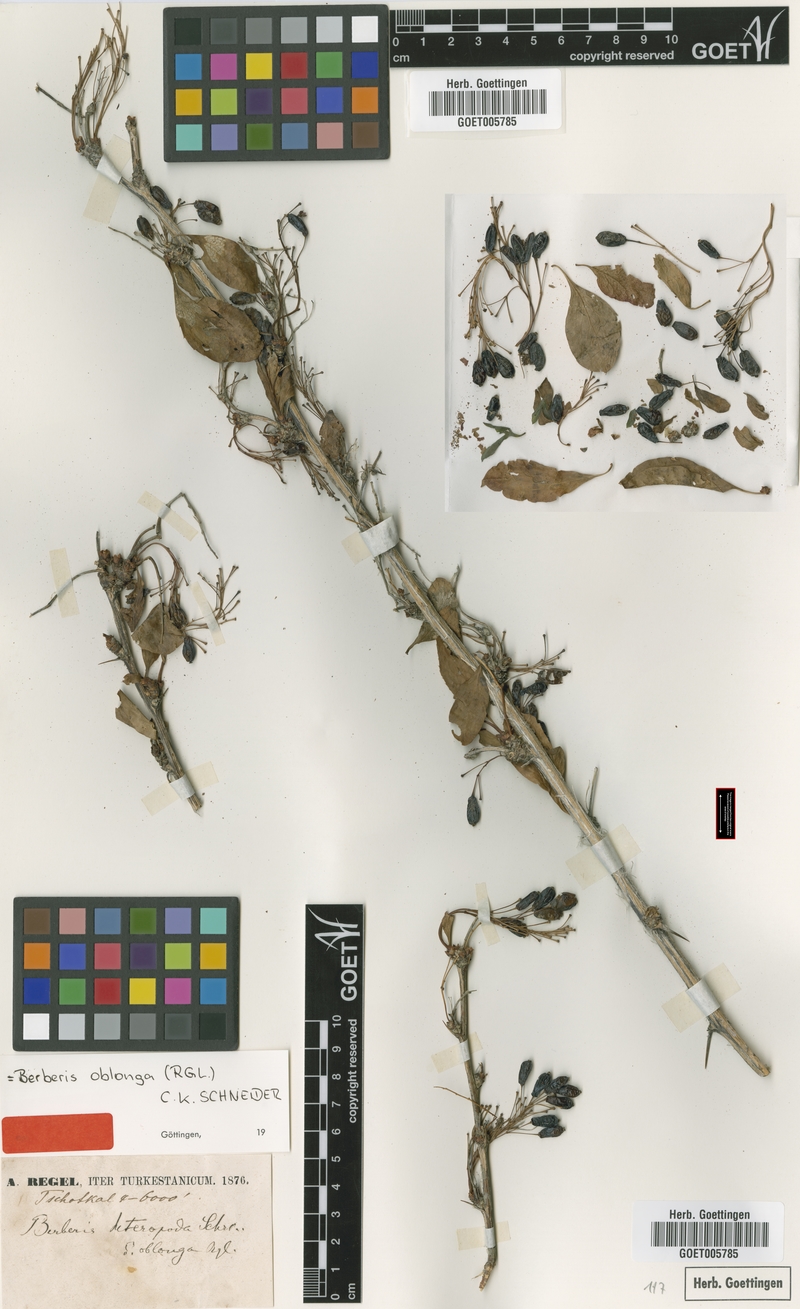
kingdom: Plantae
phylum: Tracheophyta
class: Magnoliopsida
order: Ranunculales
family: Berberidaceae
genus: Berberis
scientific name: Berberis oblonga
